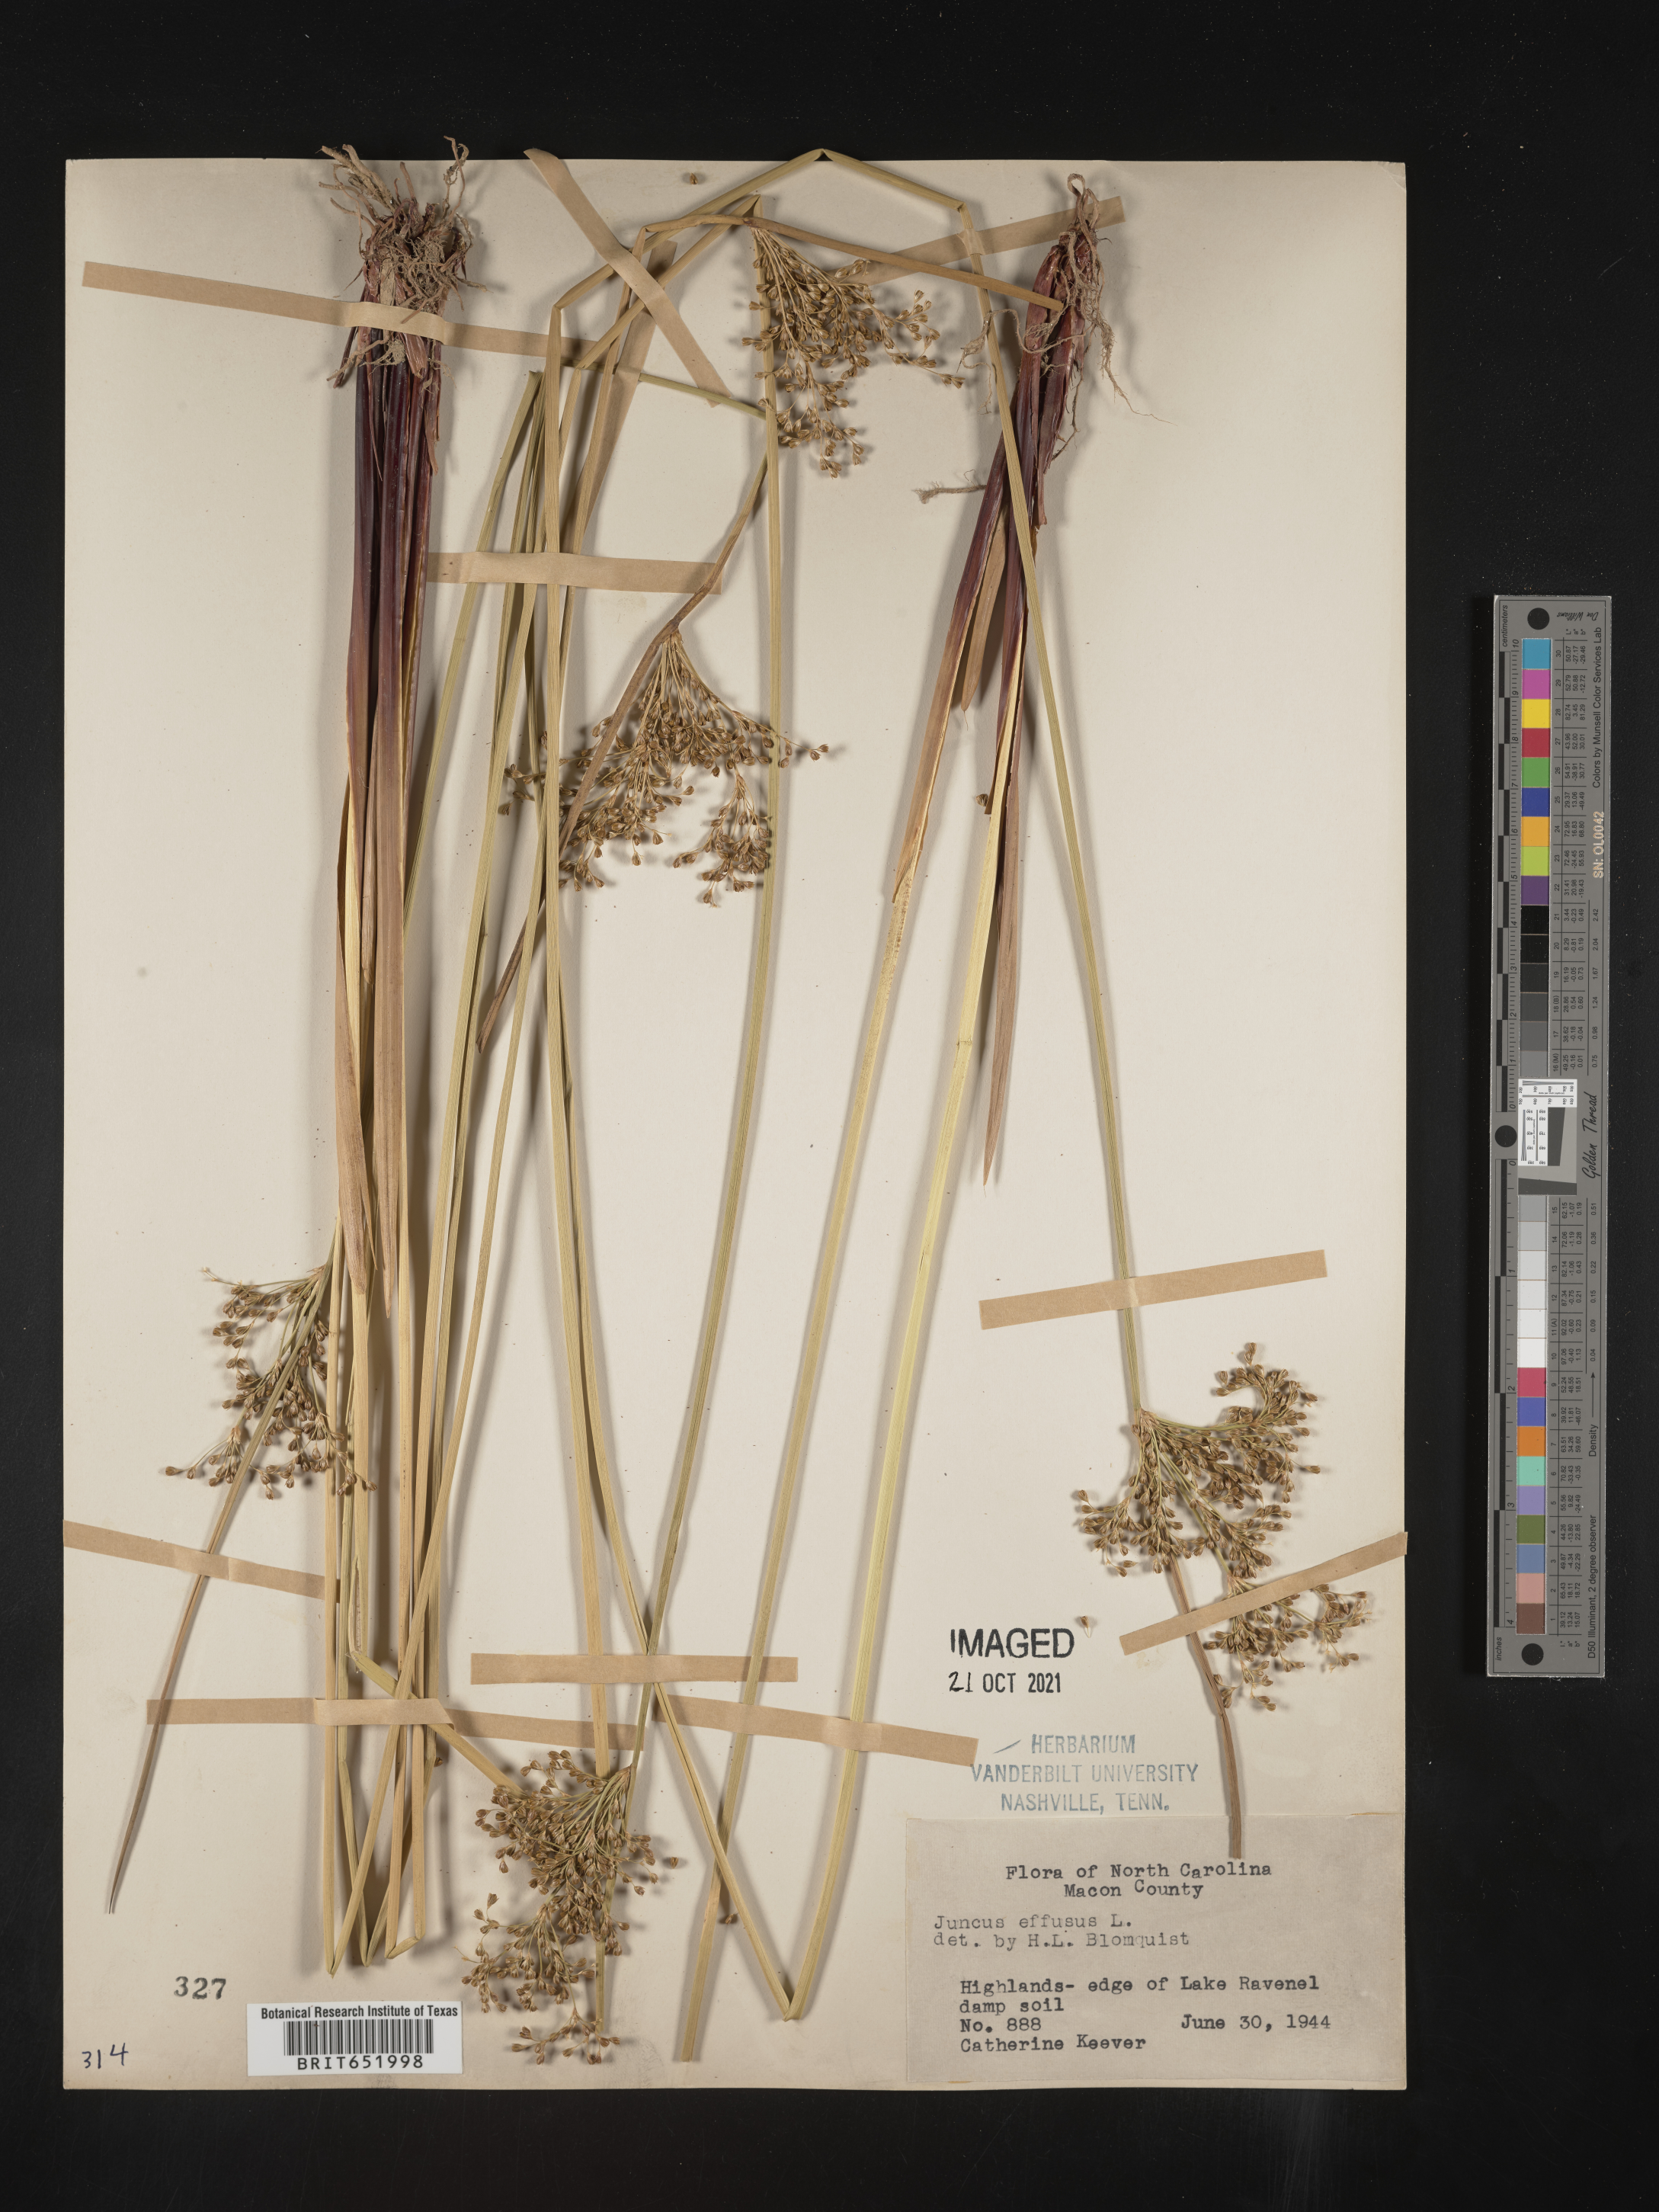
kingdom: Plantae
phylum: Tracheophyta
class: Liliopsida
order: Poales
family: Juncaceae
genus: Juncus
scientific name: Juncus effusus
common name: Soft rush
